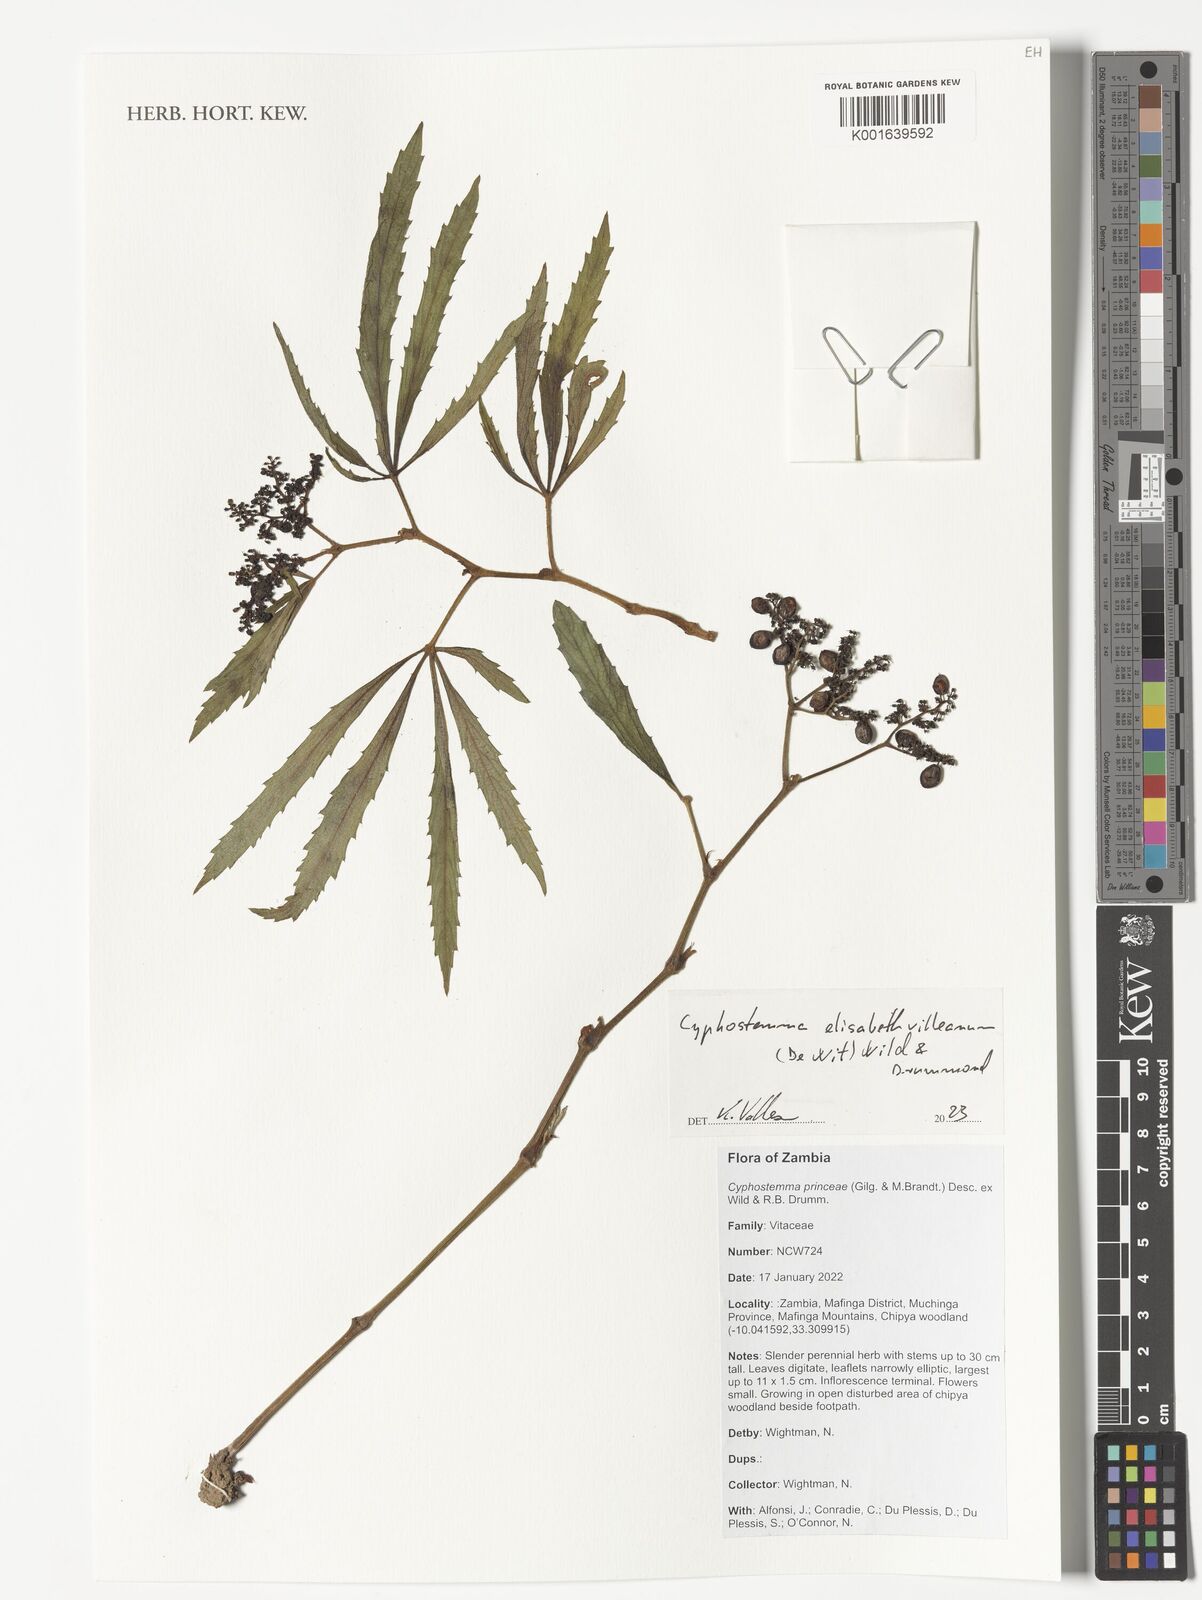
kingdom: Plantae
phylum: Tracheophyta
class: Magnoliopsida
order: Vitales
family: Vitaceae
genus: Cyphostemma
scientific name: Cyphostemma elisabethvilleanum
